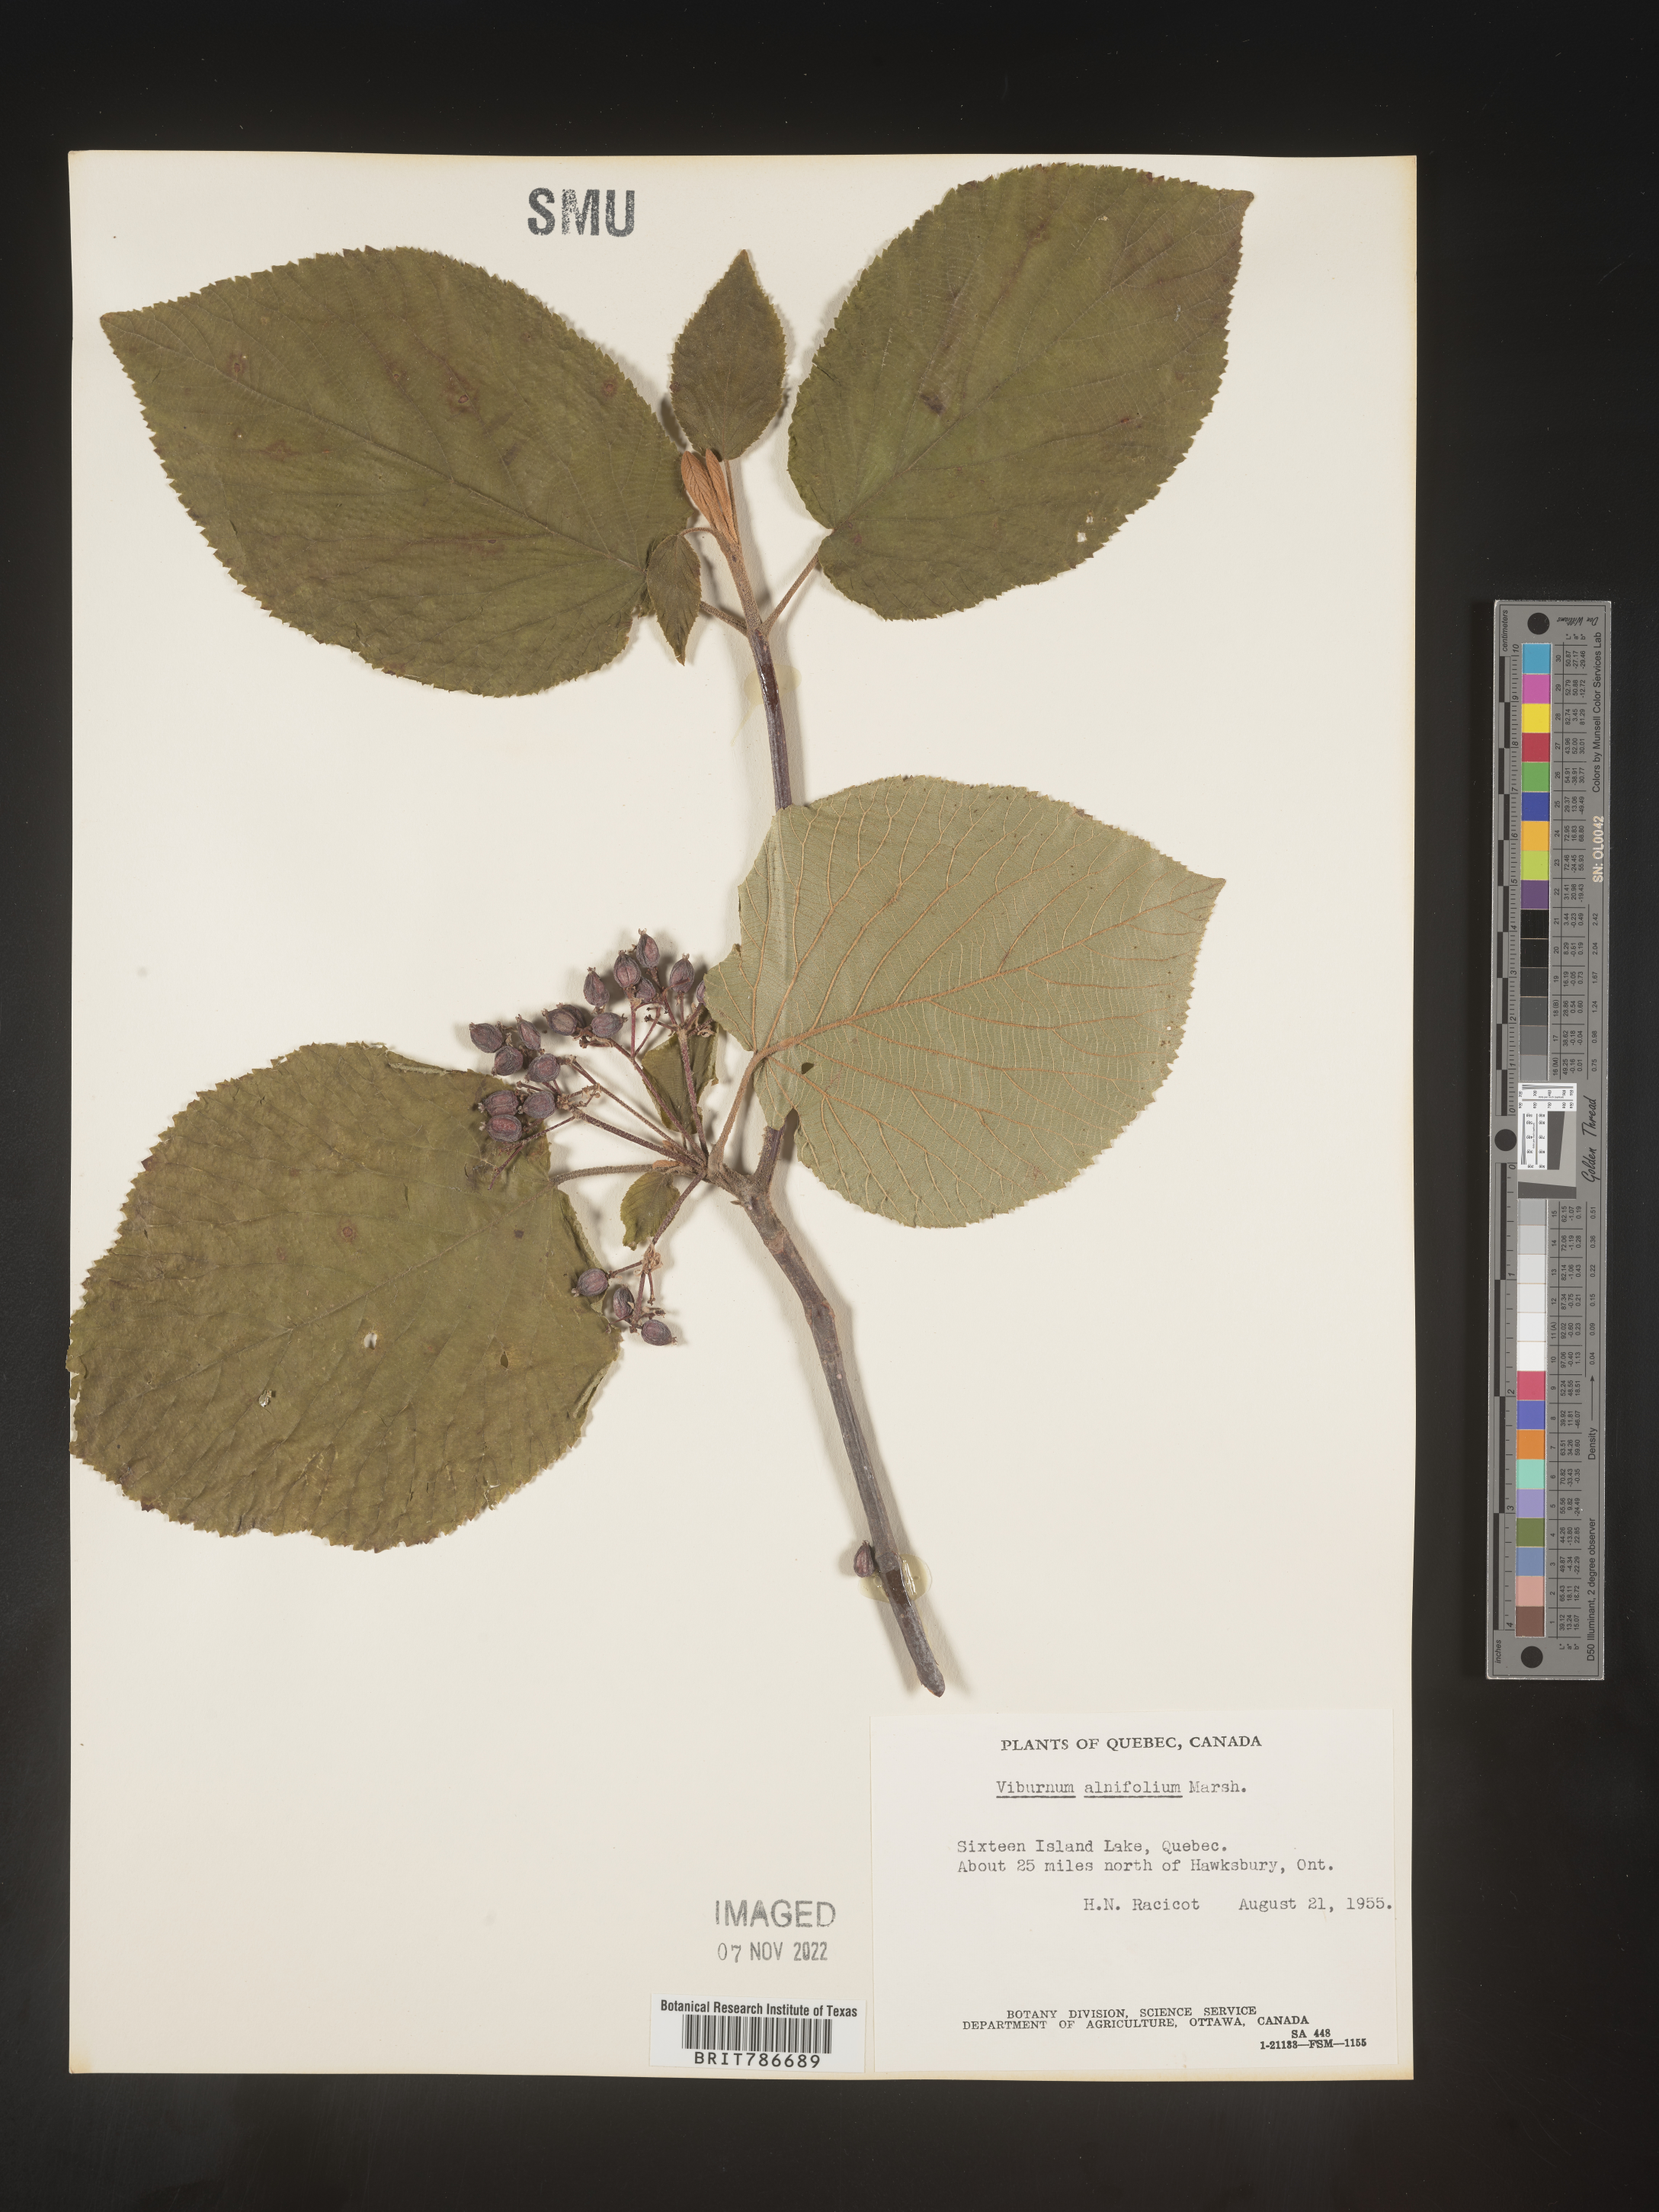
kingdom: Plantae
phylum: Tracheophyta
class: Magnoliopsida
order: Dipsacales
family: Viburnaceae
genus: Viburnum
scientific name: Viburnum lantanoides
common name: Hobblebush
